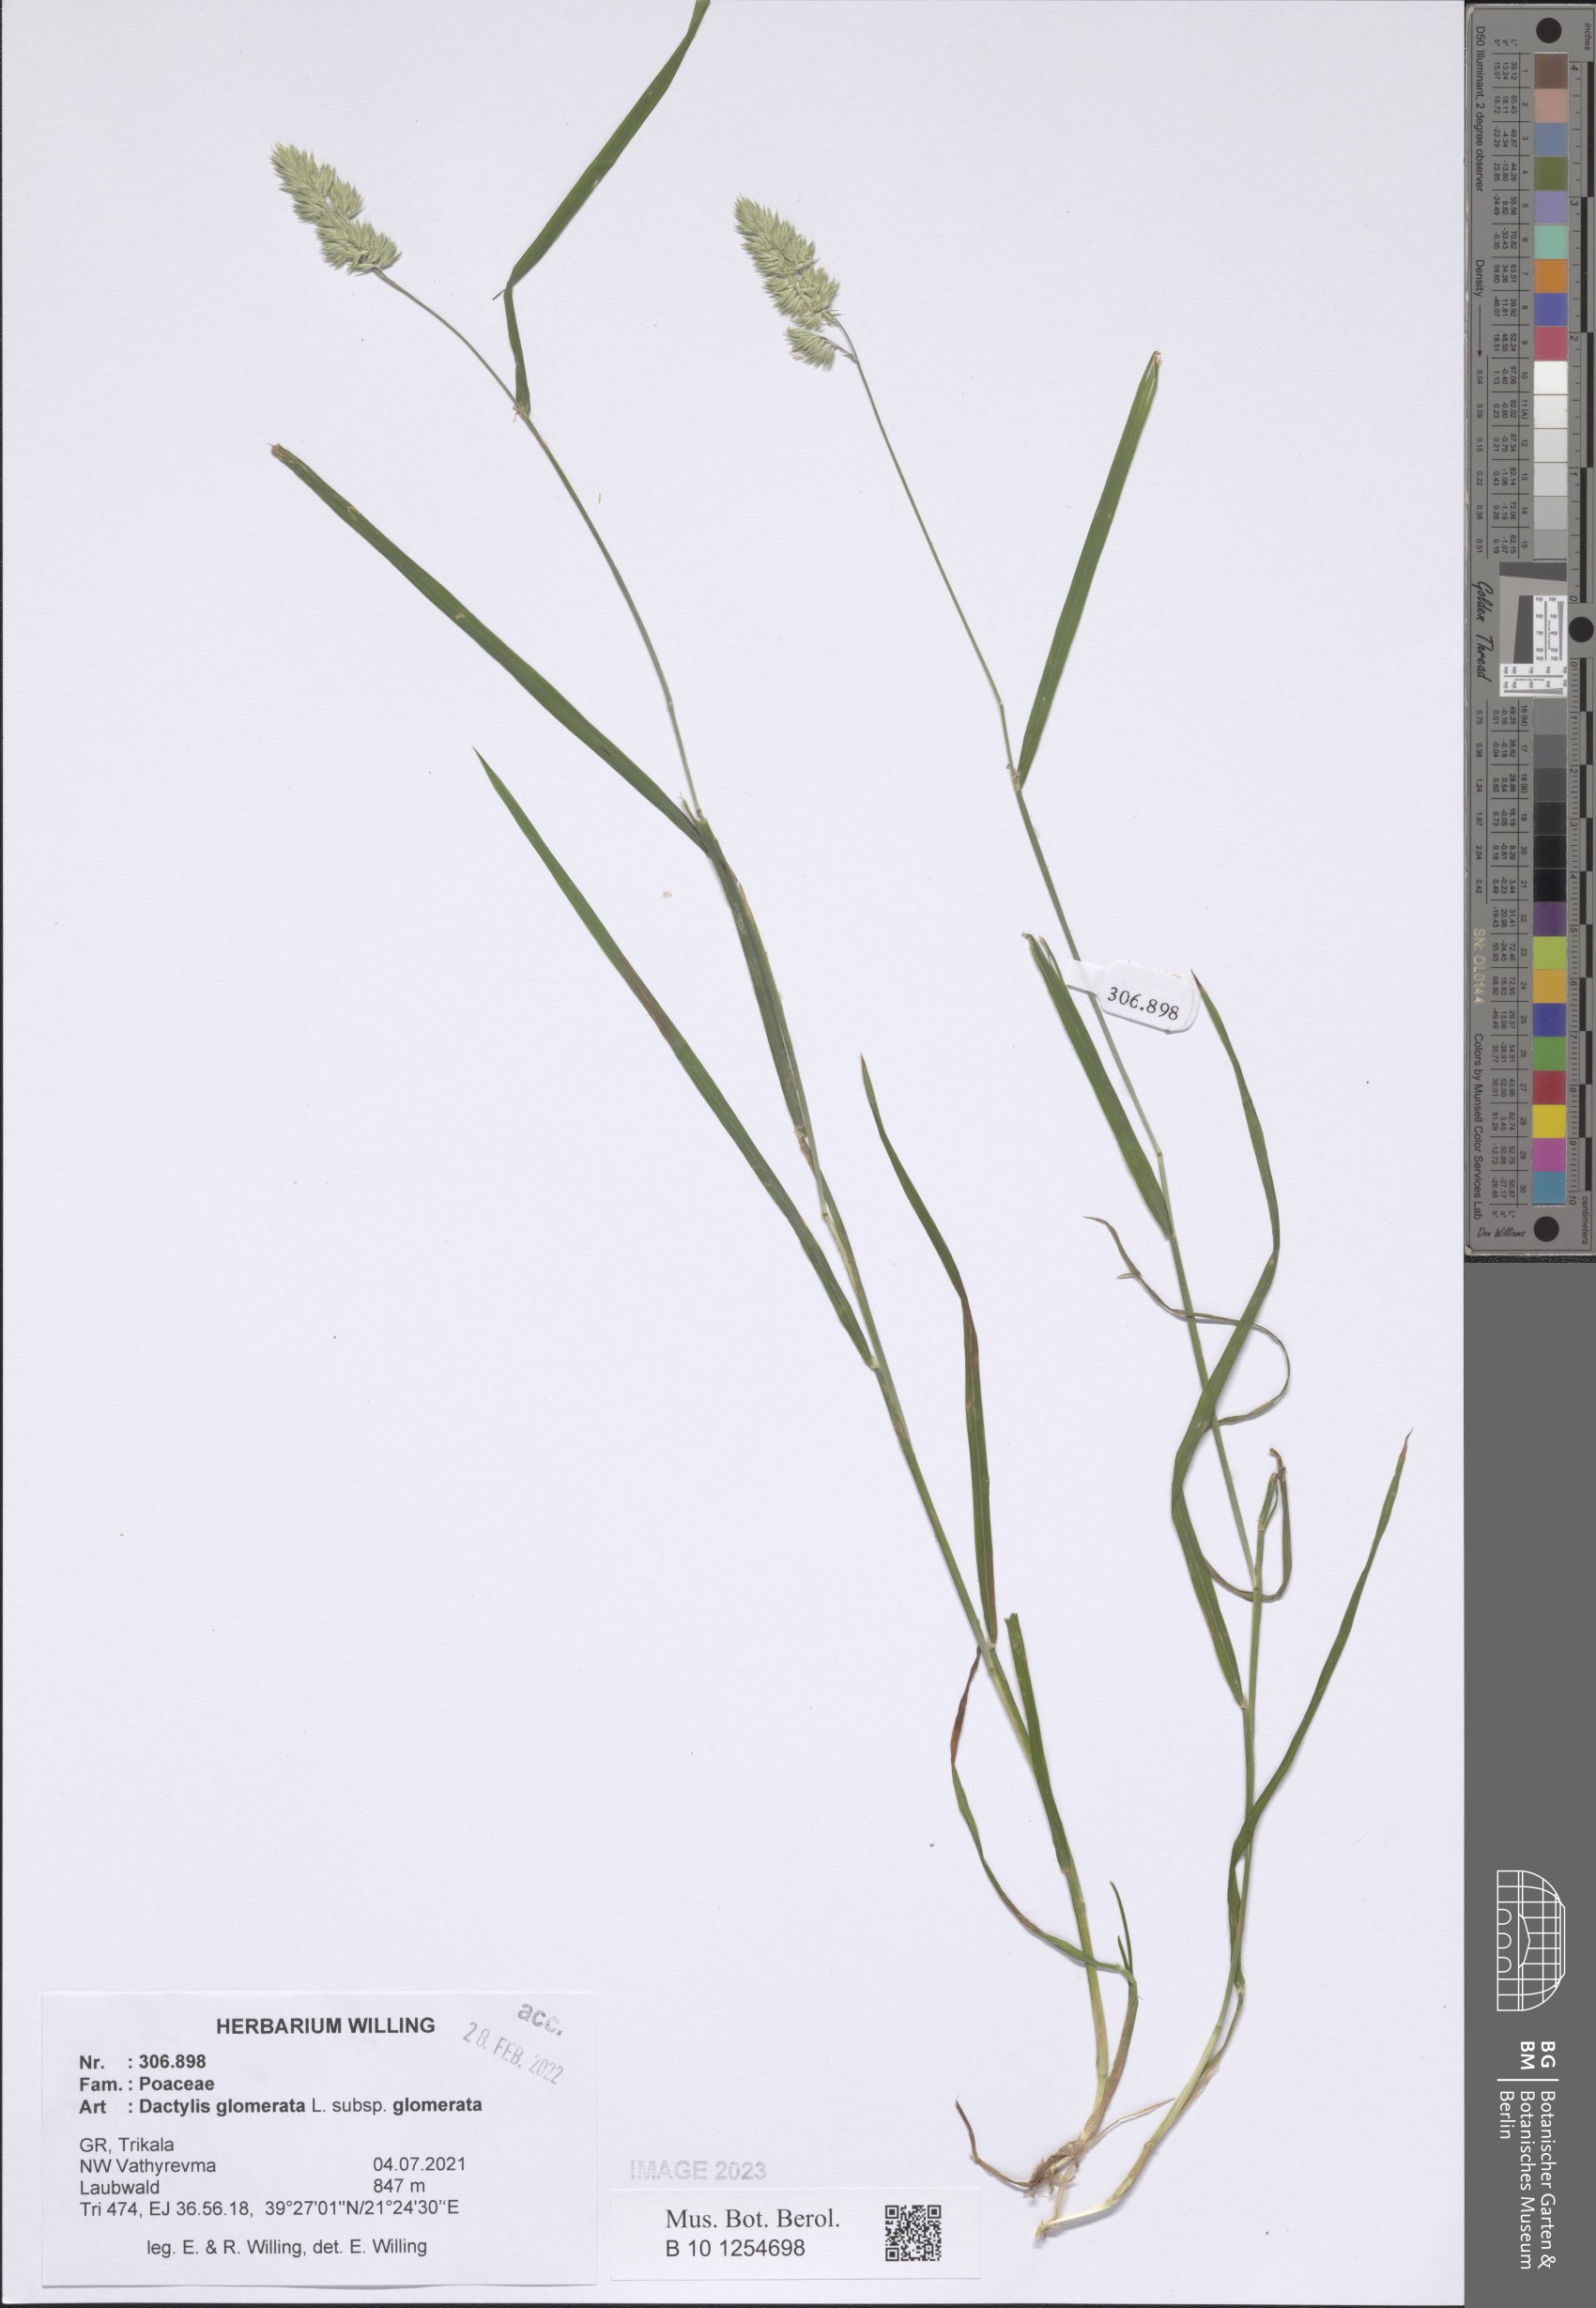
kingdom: Plantae
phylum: Tracheophyta
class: Liliopsida
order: Poales
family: Poaceae
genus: Dactylis
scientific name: Dactylis glomerata
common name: Orchardgrass
